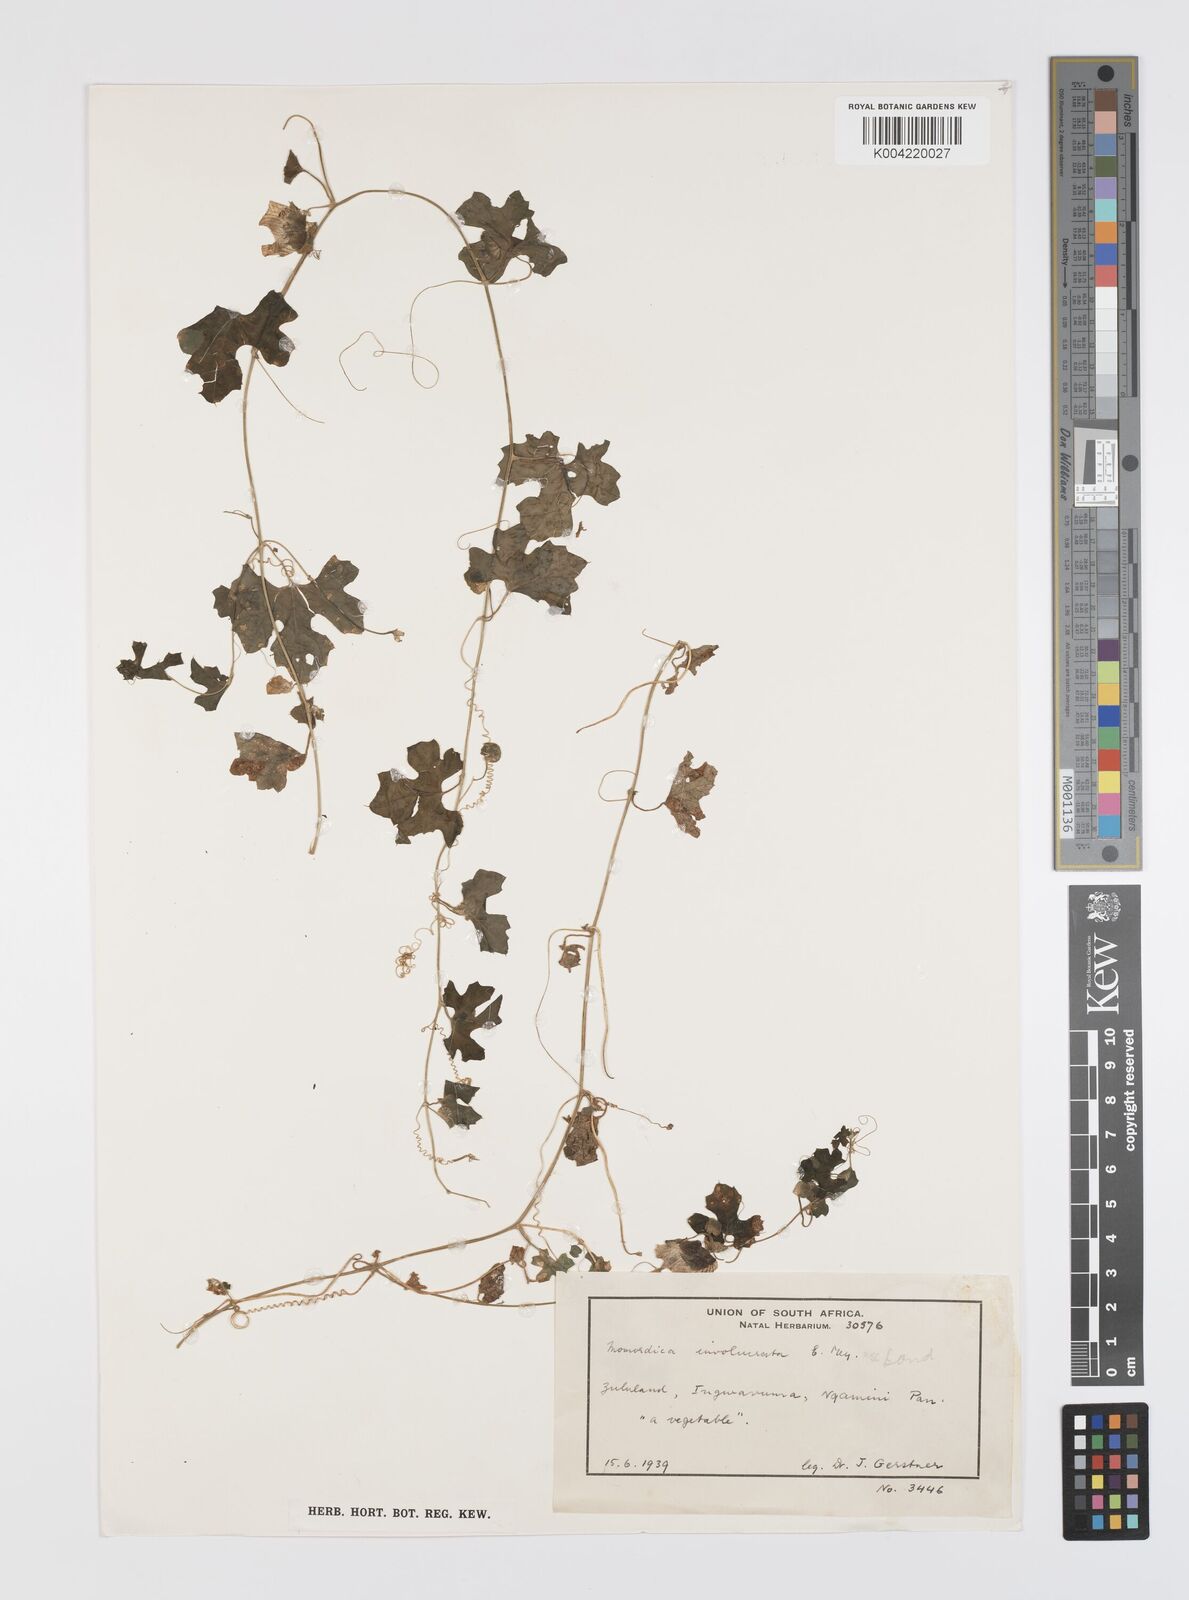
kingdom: Plantae
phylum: Tracheophyta
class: Magnoliopsida
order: Cucurbitales
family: Cucurbitaceae
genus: Momordica
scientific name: Momordica balsamina
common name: Southern balsampear
